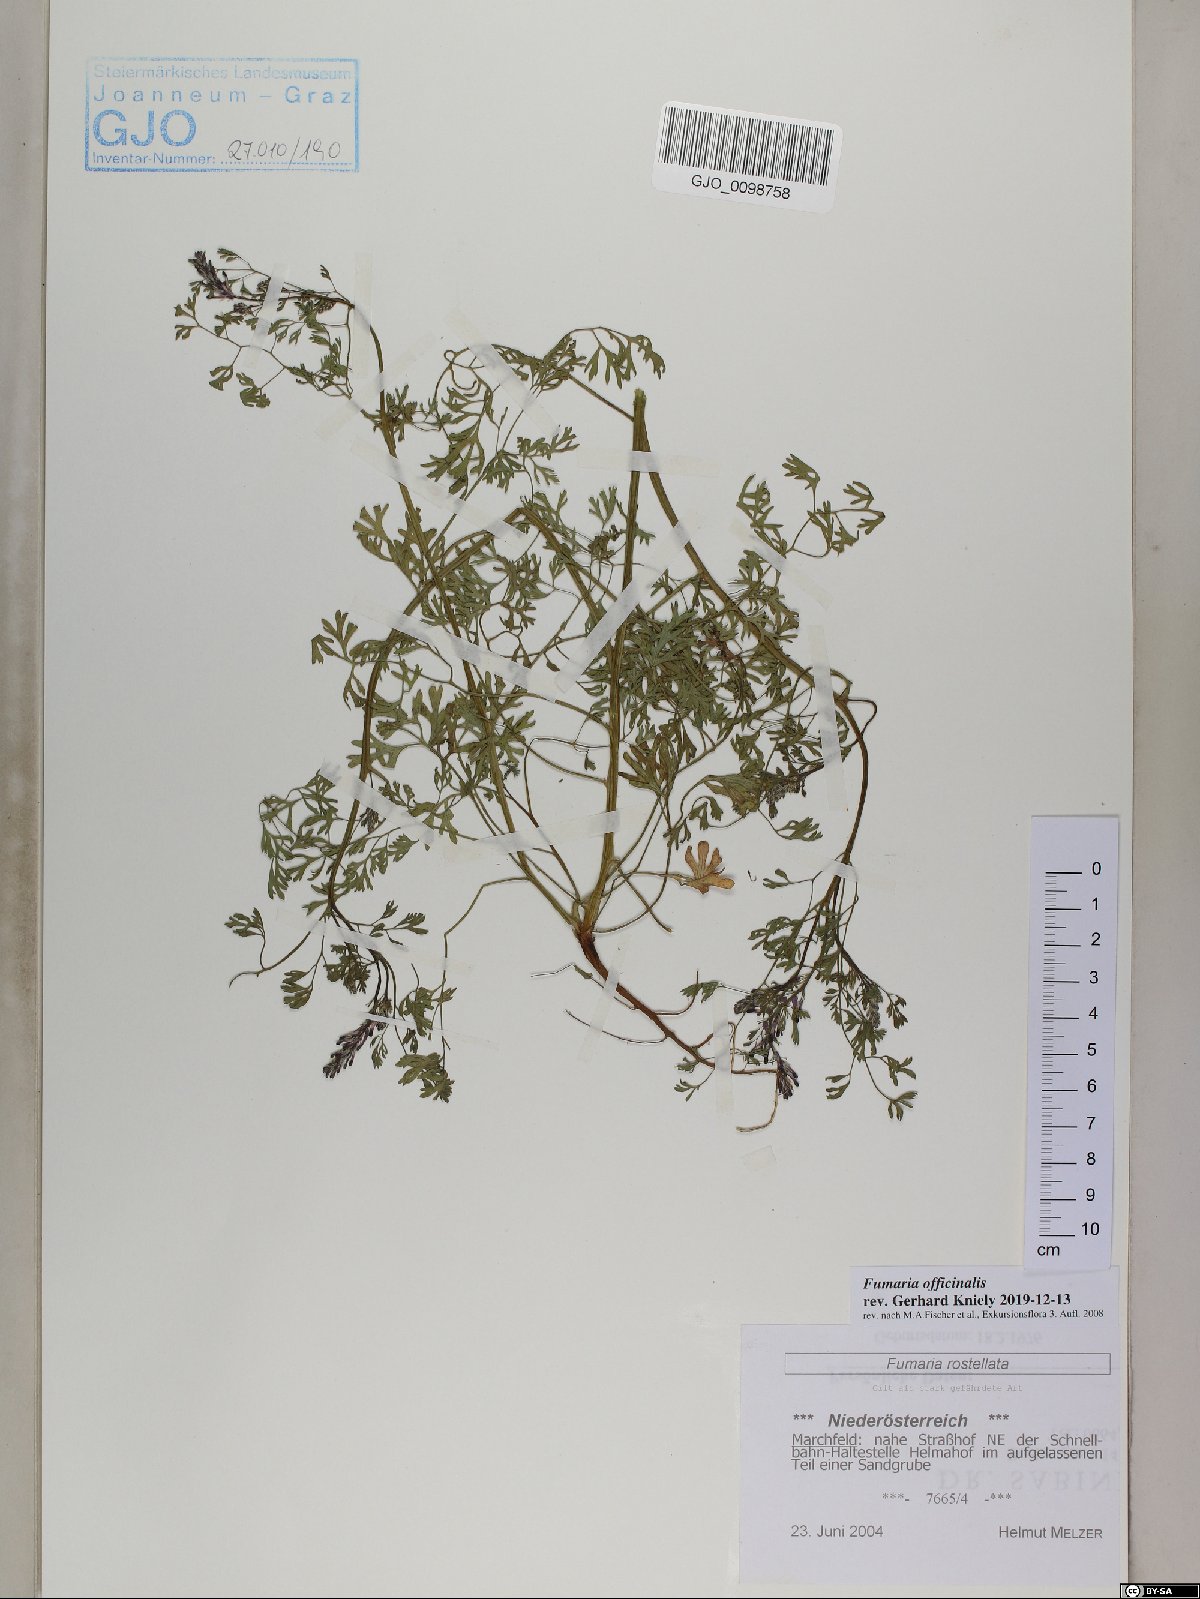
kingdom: Plantae
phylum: Tracheophyta
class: Magnoliopsida
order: Ranunculales
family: Papaveraceae
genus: Fumaria
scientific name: Fumaria officinalis
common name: Common fumitory
